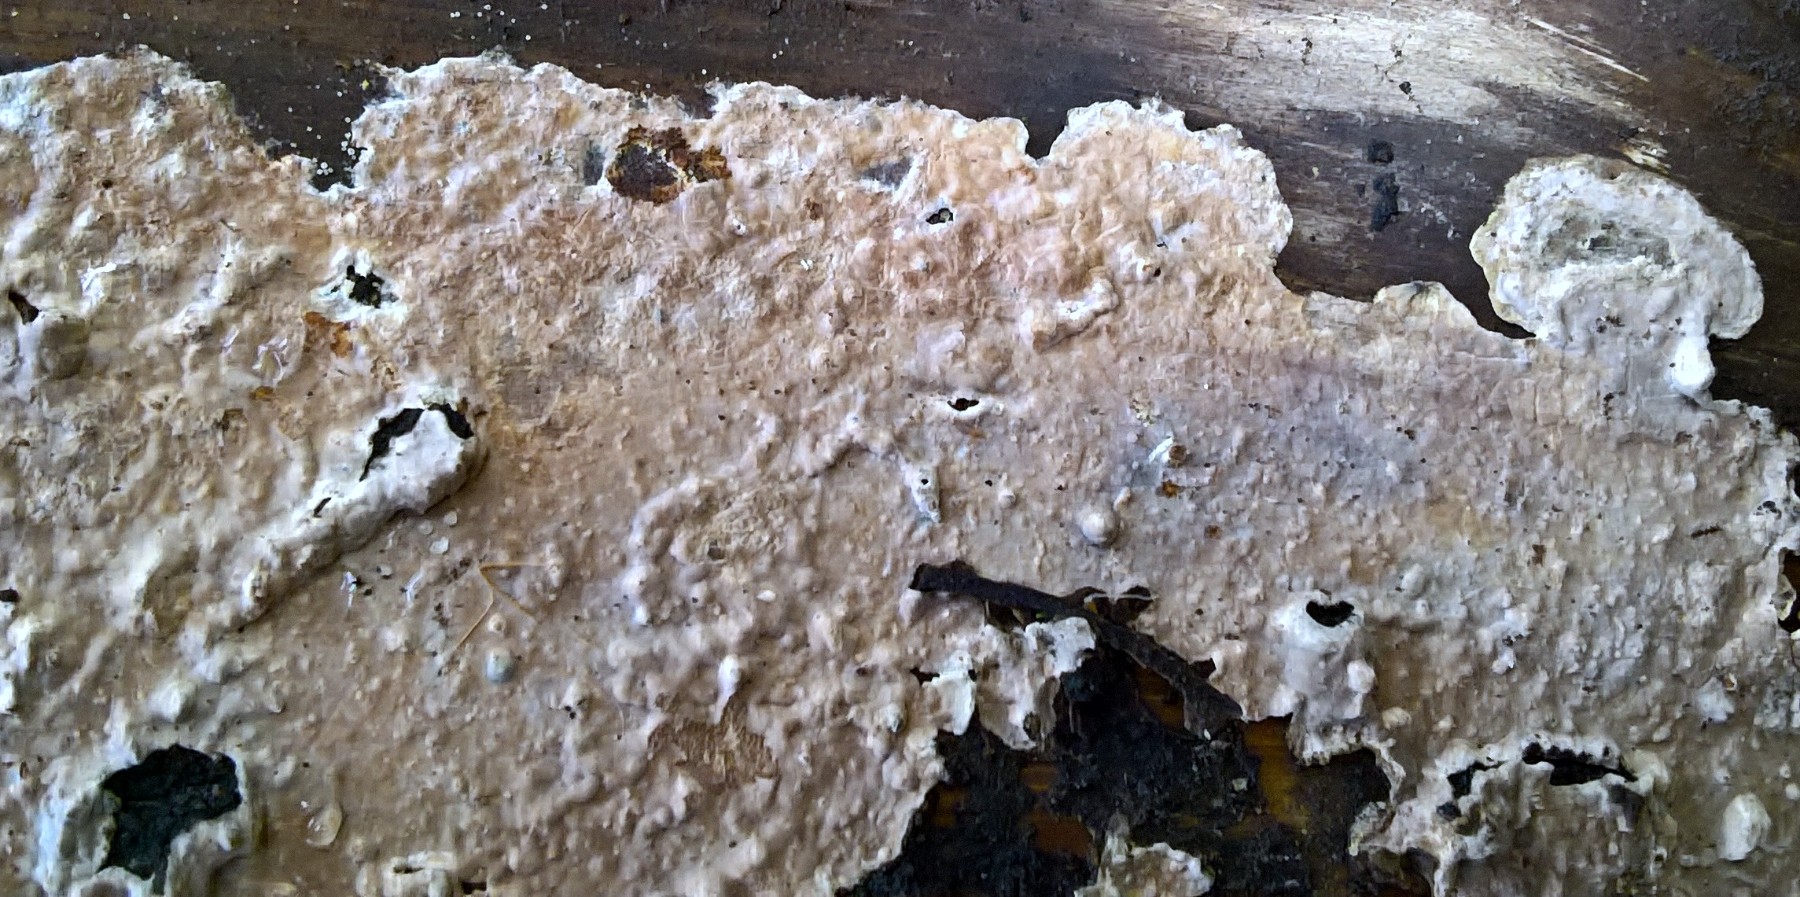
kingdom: Fungi
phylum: Basidiomycota
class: Agaricomycetes
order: Corticiales
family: Corticiaceae
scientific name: Corticiaceae
